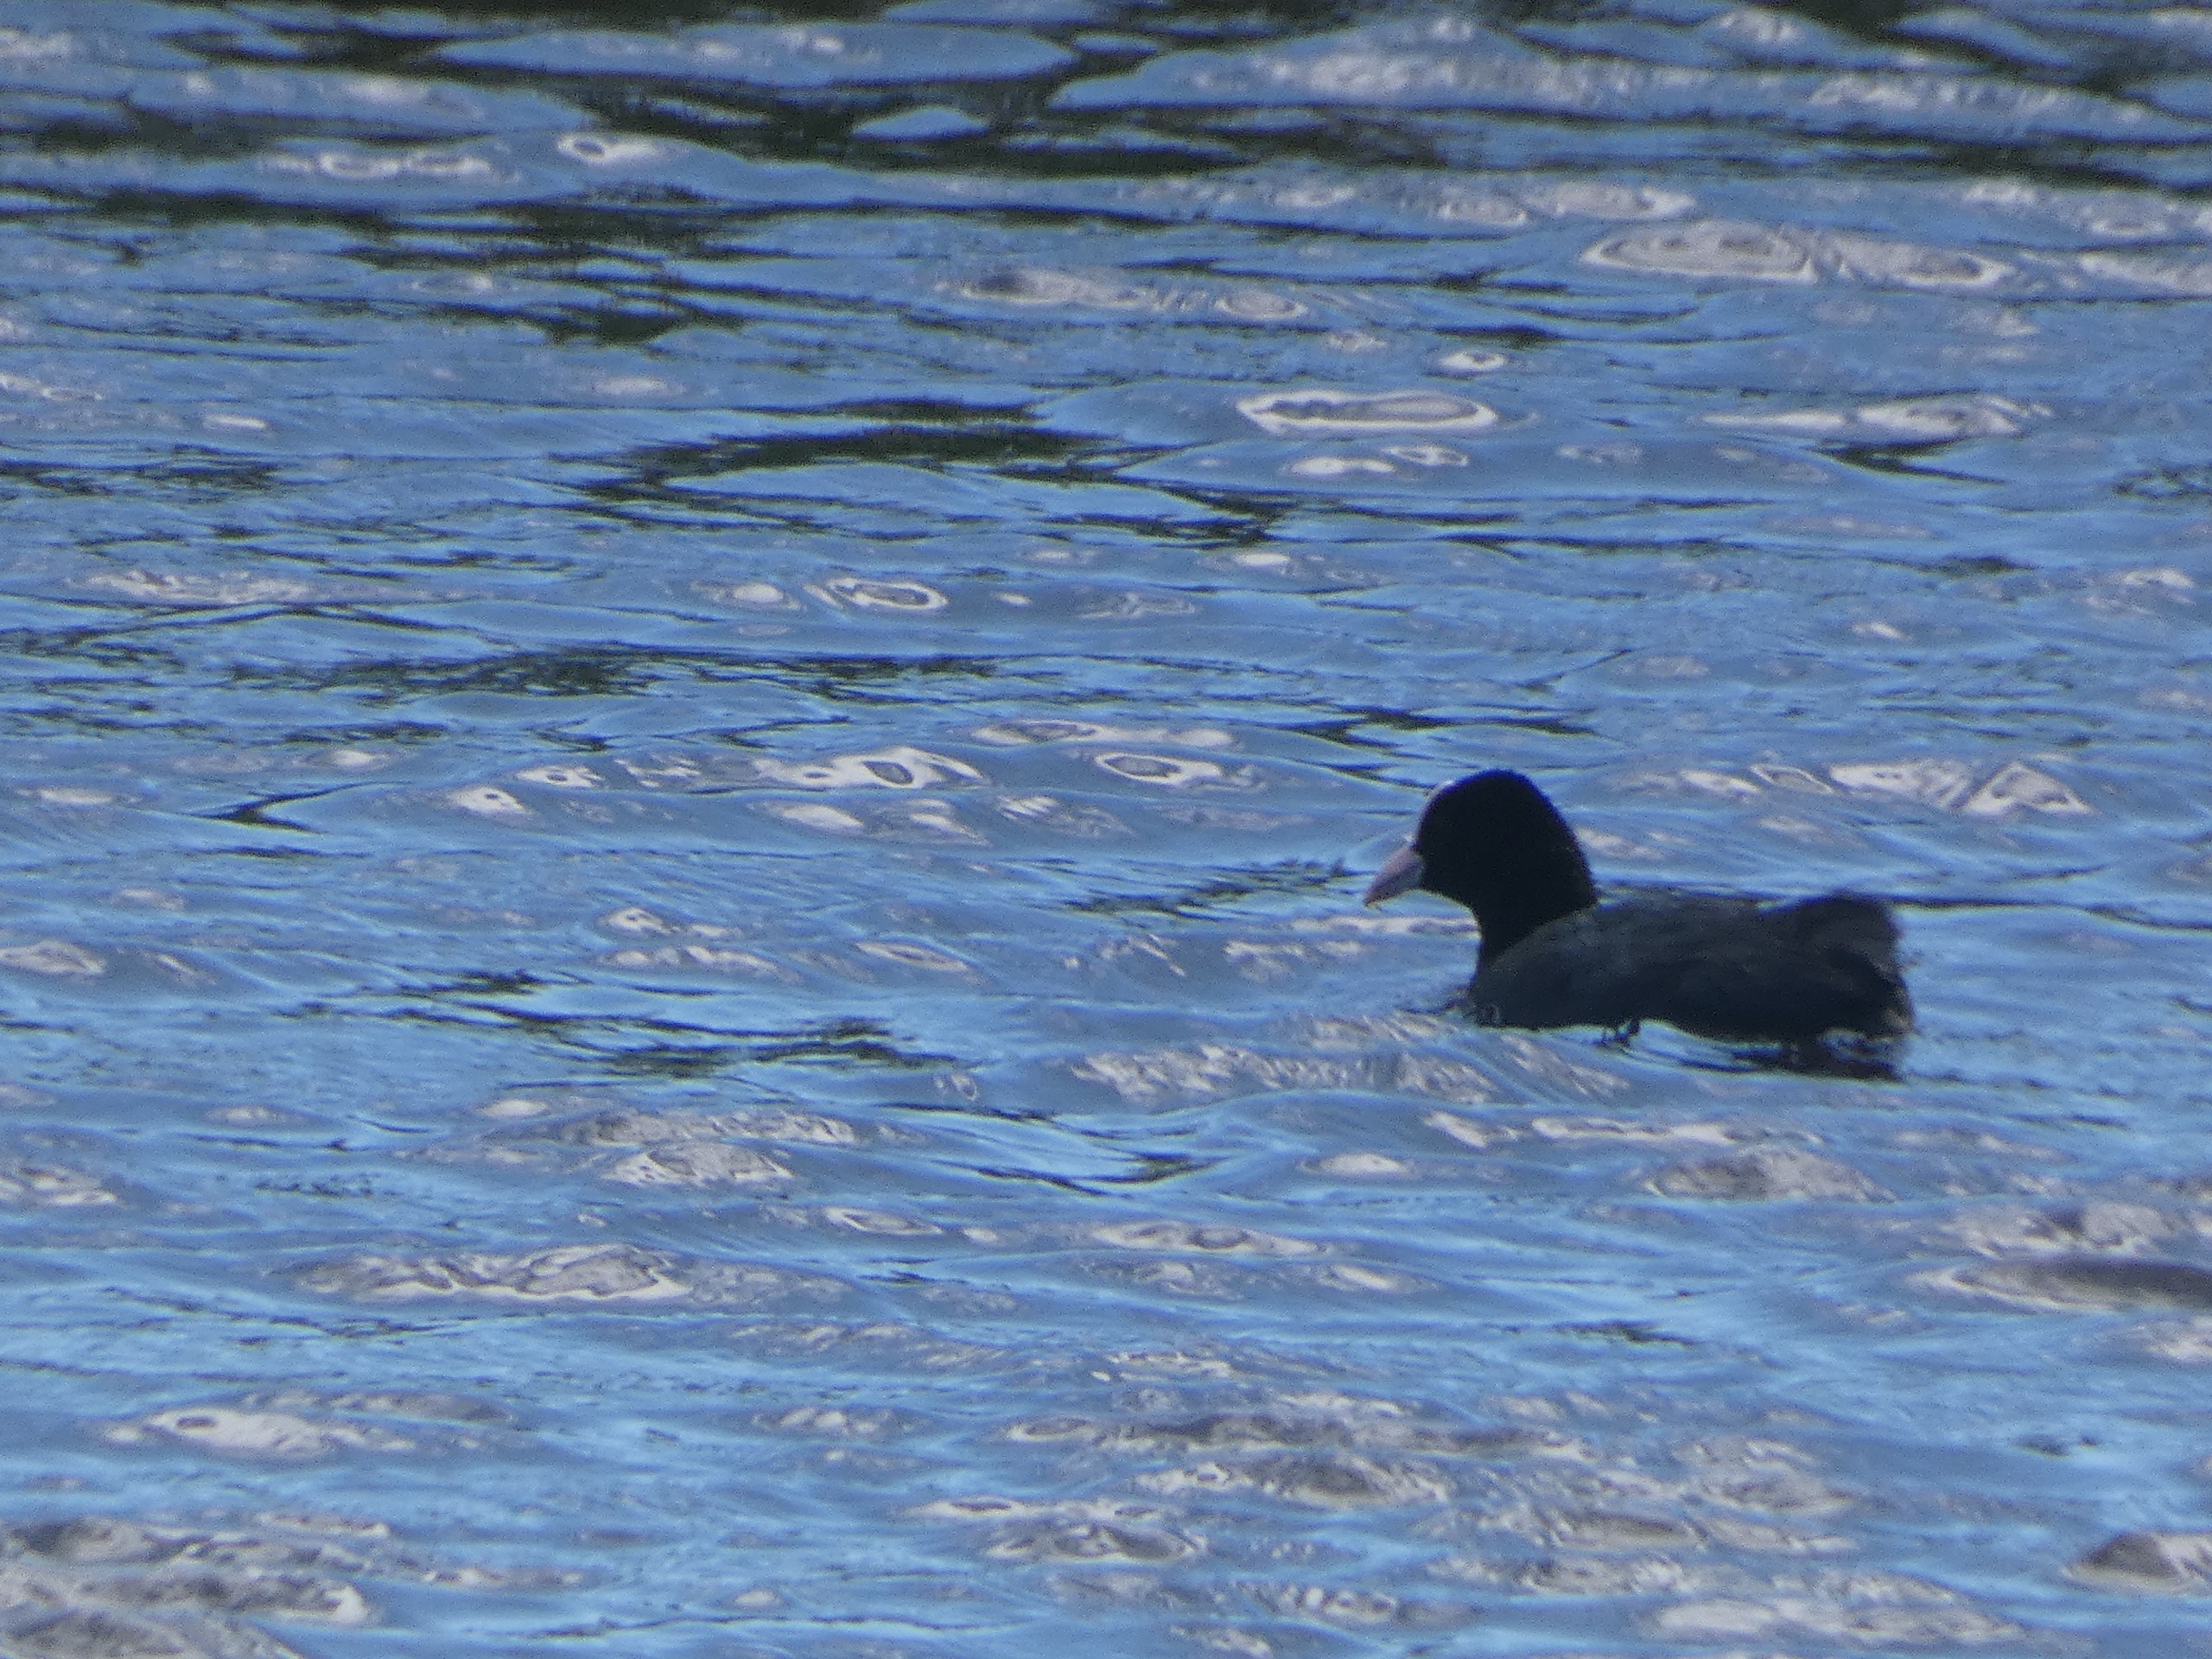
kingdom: Animalia
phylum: Chordata
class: Aves
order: Gruiformes
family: Rallidae
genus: Fulica
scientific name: Fulica atra
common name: Blishøne
